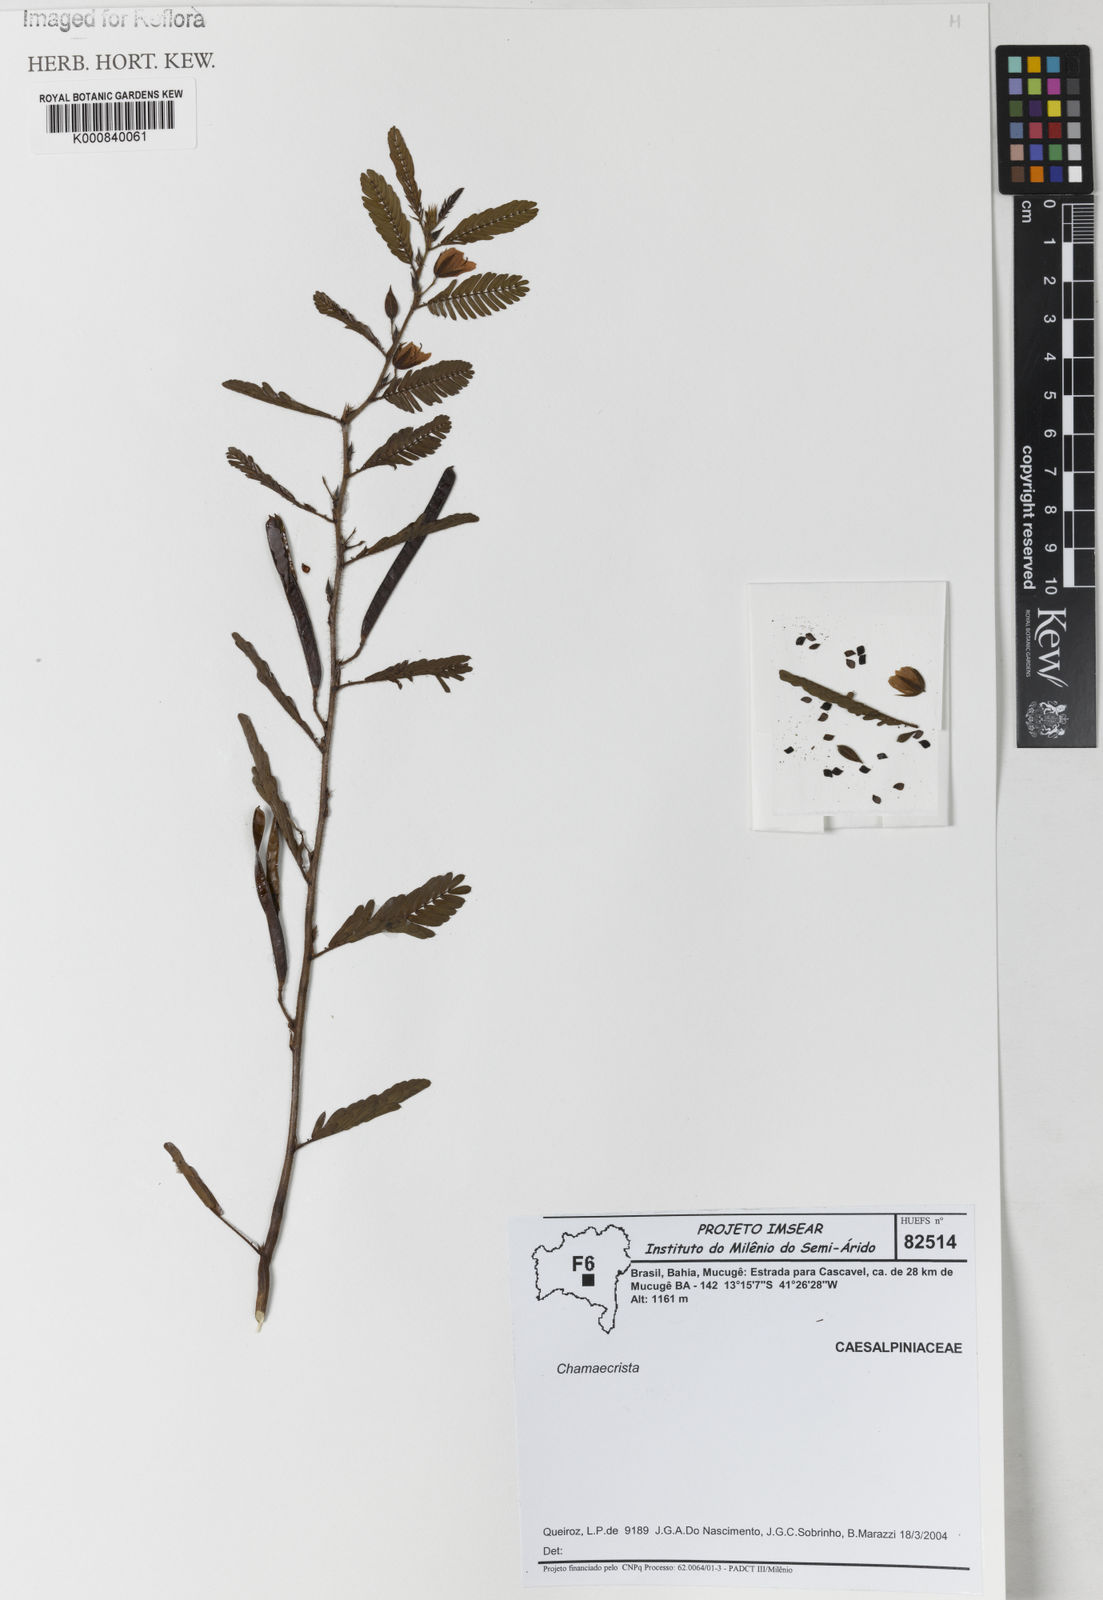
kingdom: Plantae
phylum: Tracheophyta
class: Magnoliopsida
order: Fabales
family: Fabaceae
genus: Chamaecrista
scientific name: Chamaecrista
